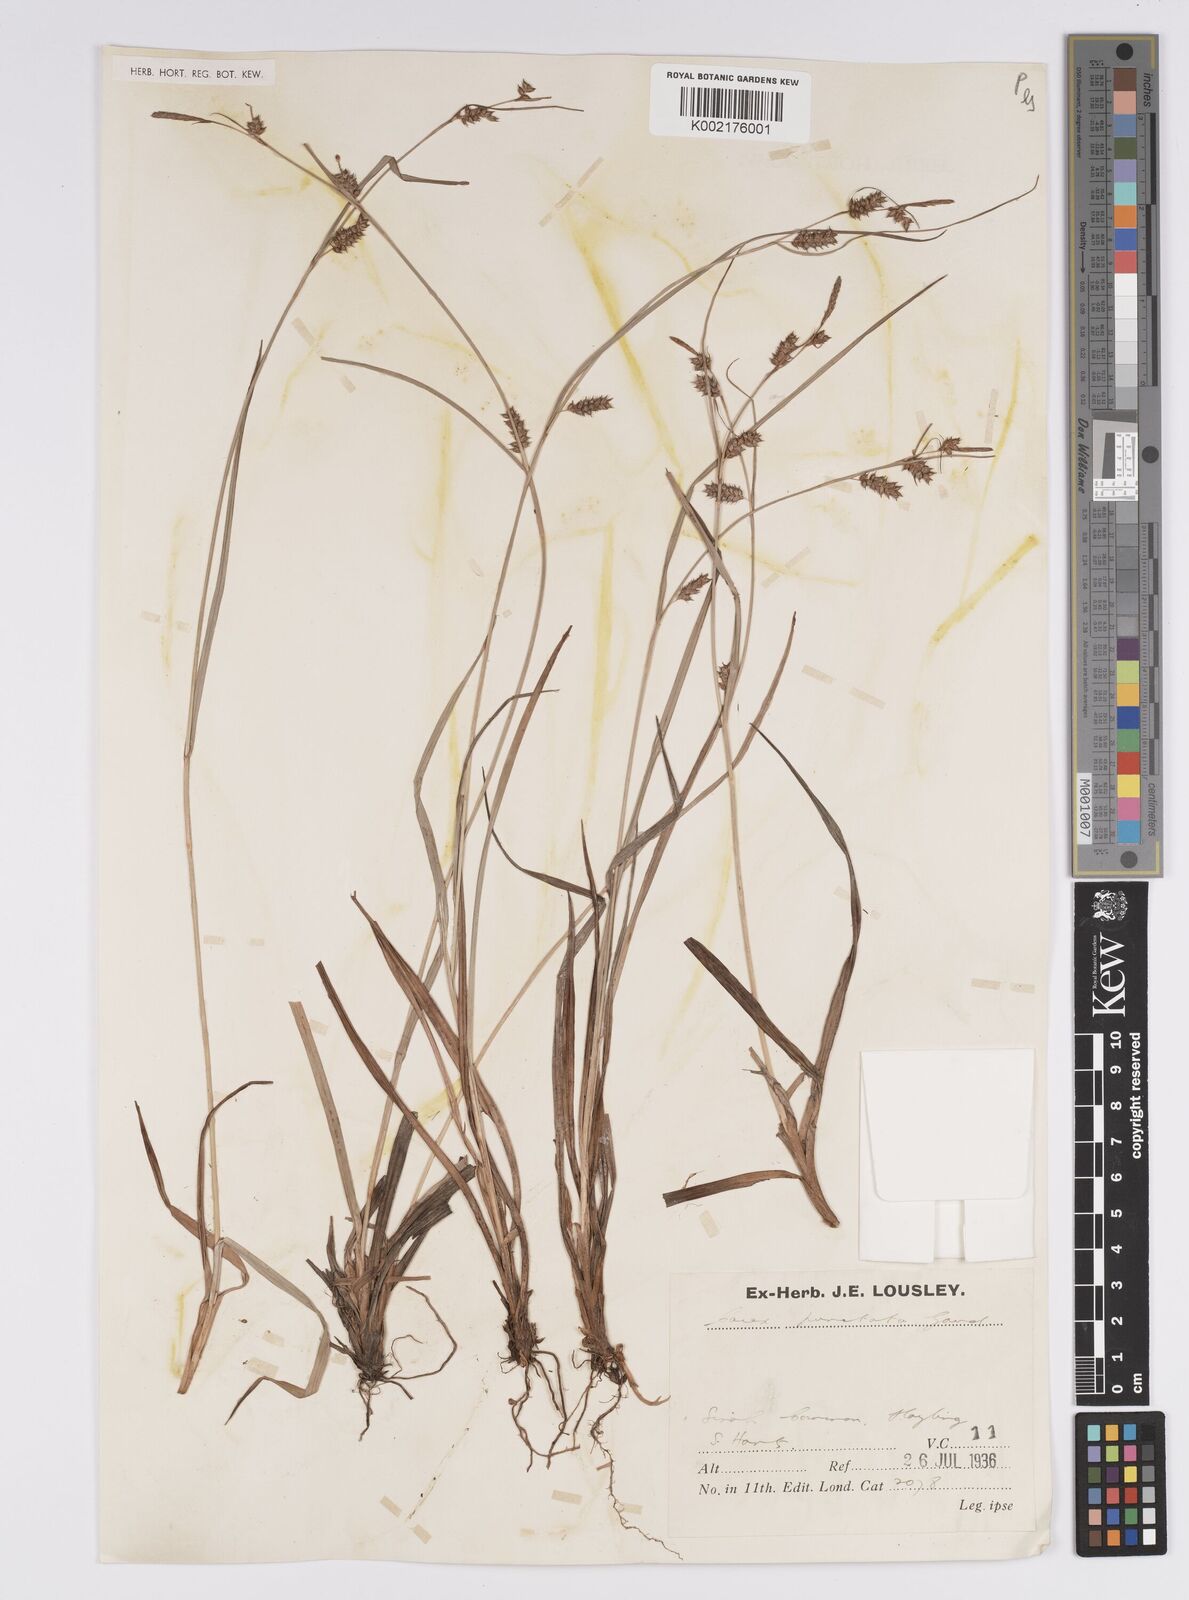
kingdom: Plantae
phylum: Tracheophyta
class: Liliopsida
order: Poales
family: Cyperaceae
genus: Carex
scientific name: Carex punctata
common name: Dotted sedge
